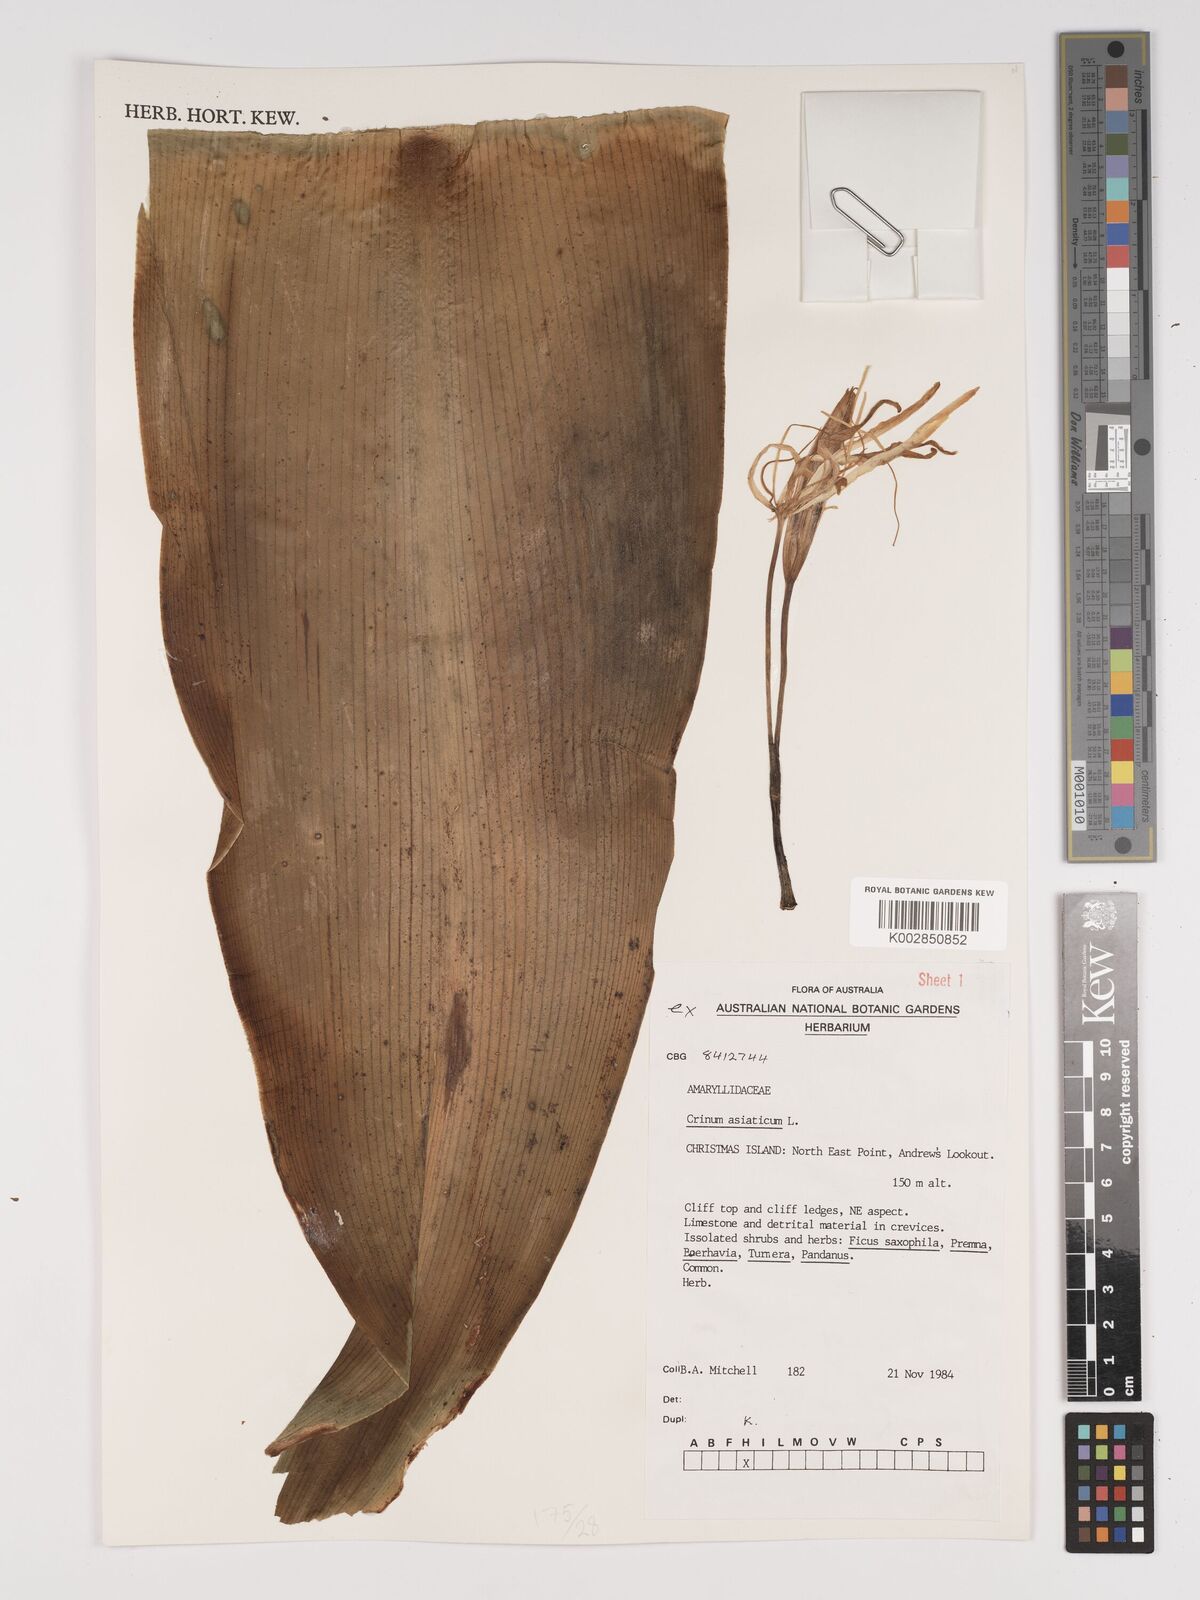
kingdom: Plantae
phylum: Tracheophyta
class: Liliopsida
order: Asparagales
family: Amaryllidaceae
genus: Crinum
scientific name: Crinum asiaticum
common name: Poisonbulb
